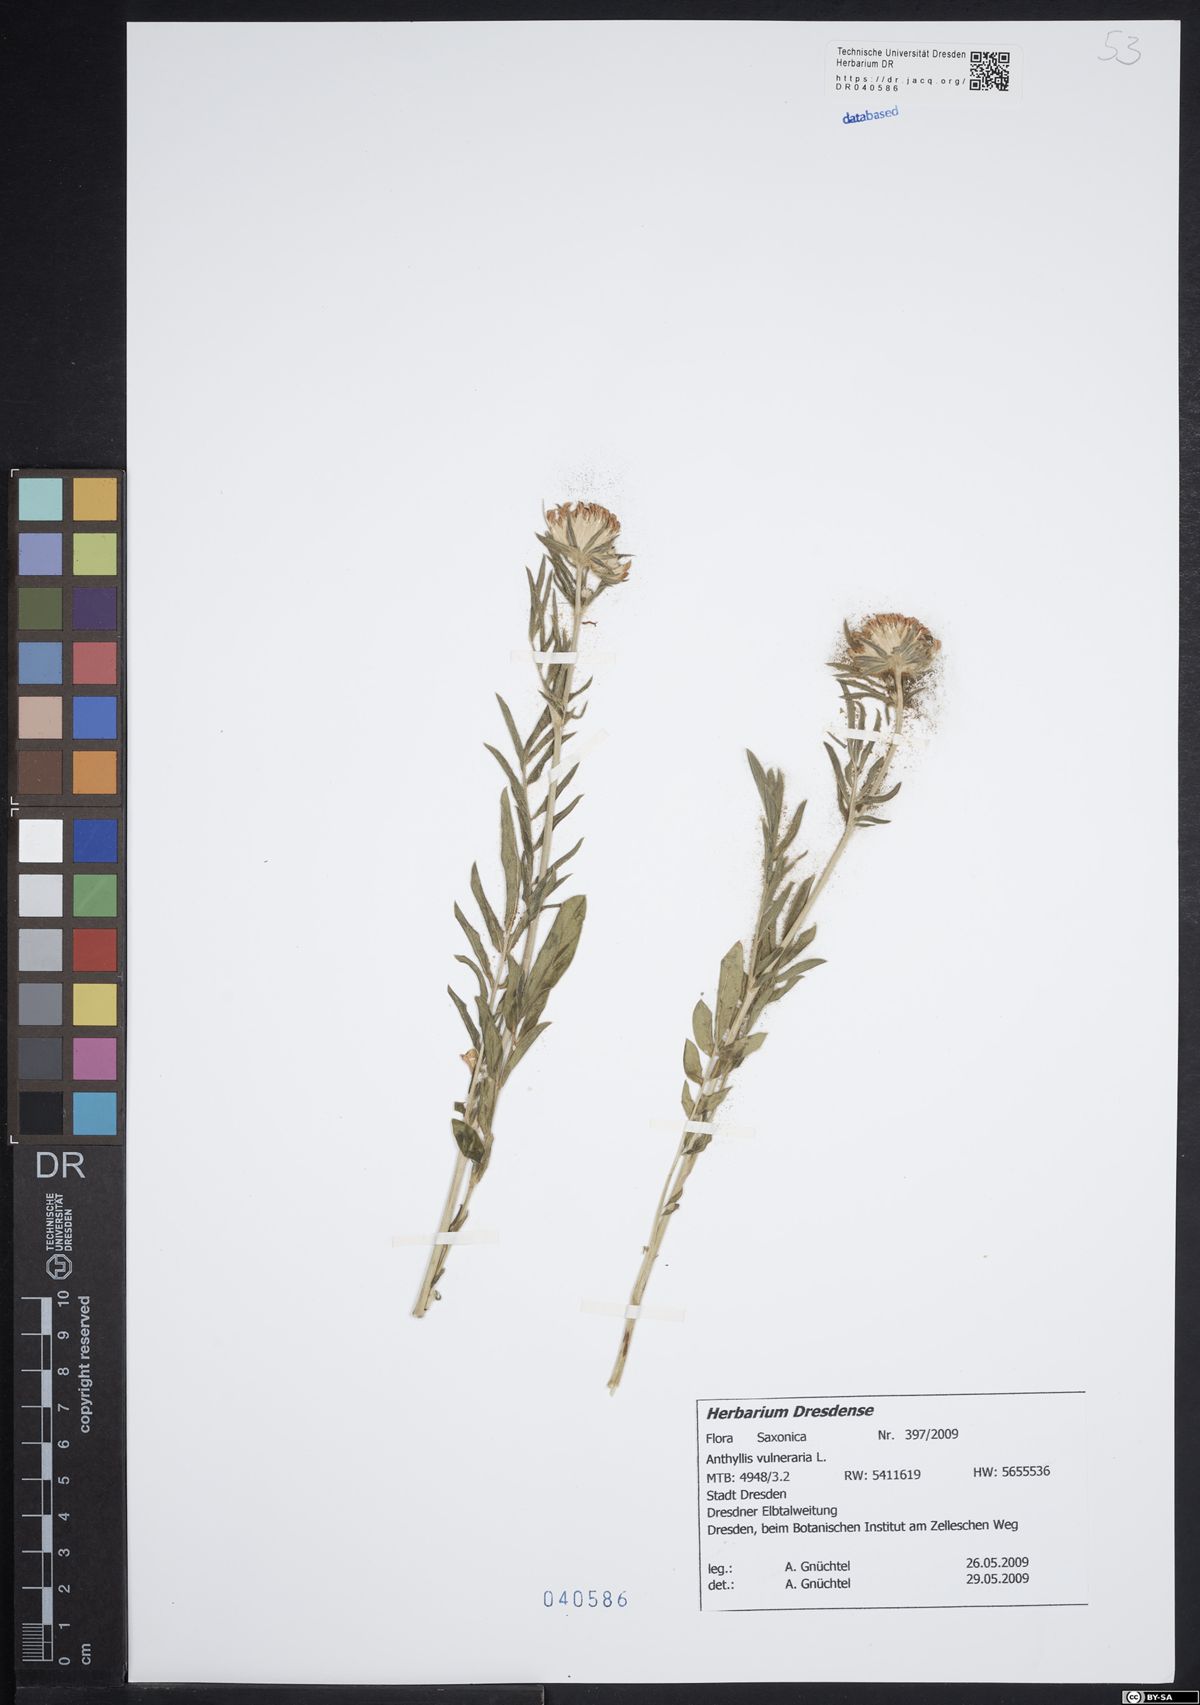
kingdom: Plantae
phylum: Tracheophyta
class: Magnoliopsida
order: Fabales
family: Fabaceae
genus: Anthyllis
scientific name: Anthyllis vulneraria
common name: Kidney vetch
